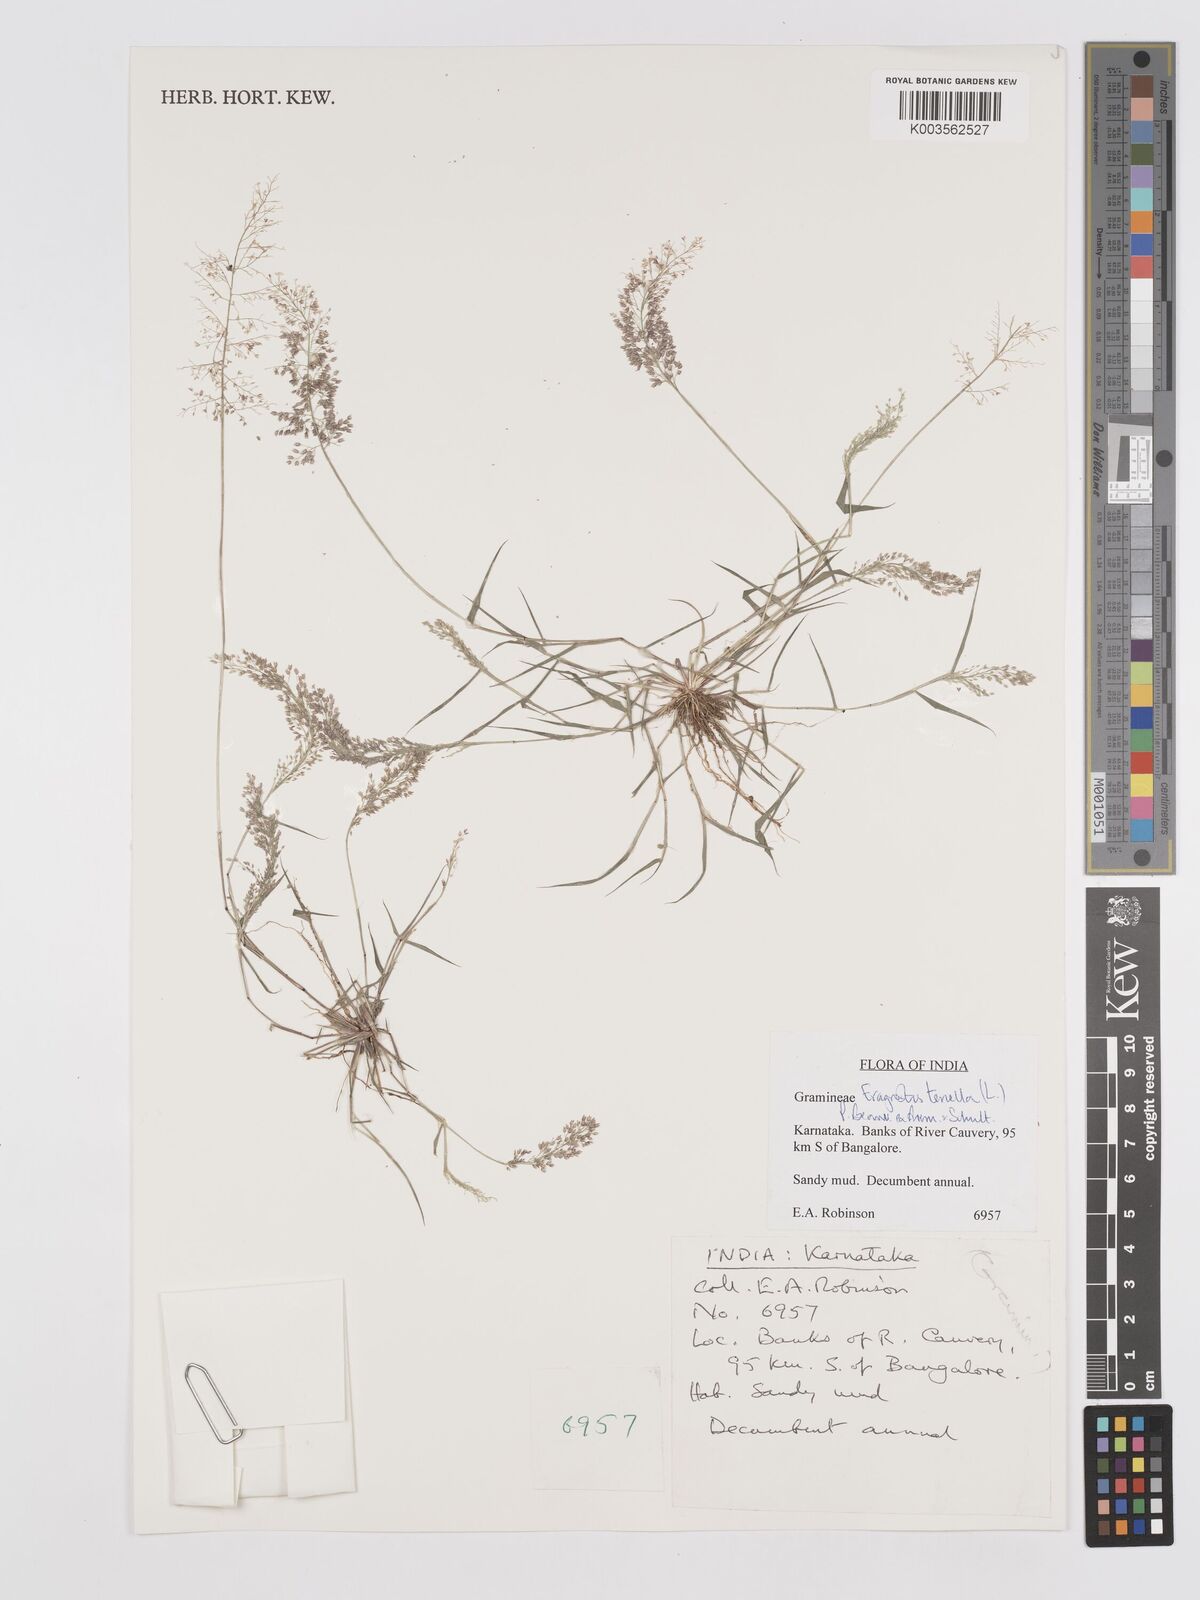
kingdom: Plantae
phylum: Tracheophyta
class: Liliopsida
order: Poales
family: Poaceae
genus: Eragrostis
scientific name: Eragrostis tenella
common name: Japanese lovegrass
